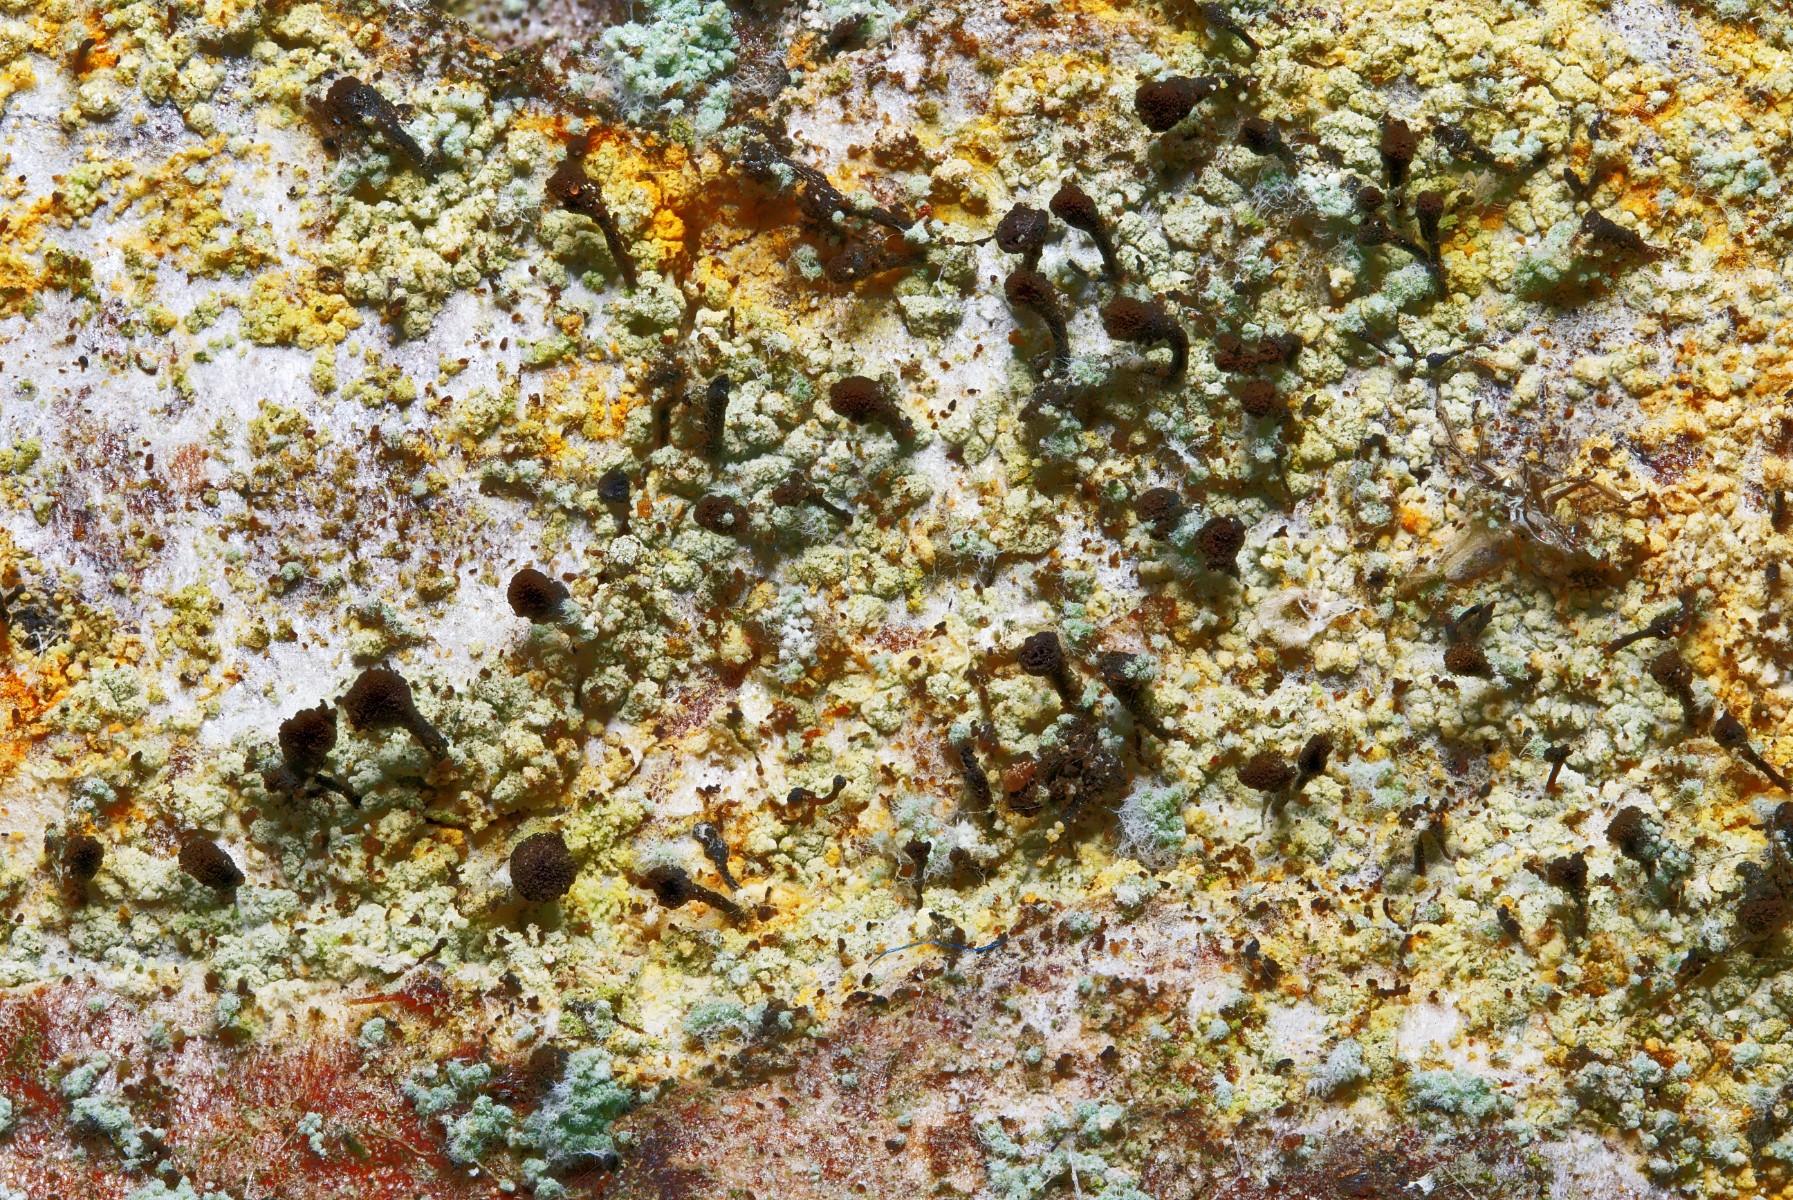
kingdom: Fungi
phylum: Ascomycota
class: Coniocybomycetes
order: Coniocybales
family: Coniocybaceae
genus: Chaenotheca
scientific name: Chaenotheca ferruginea
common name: rustbrun knappenålslav
